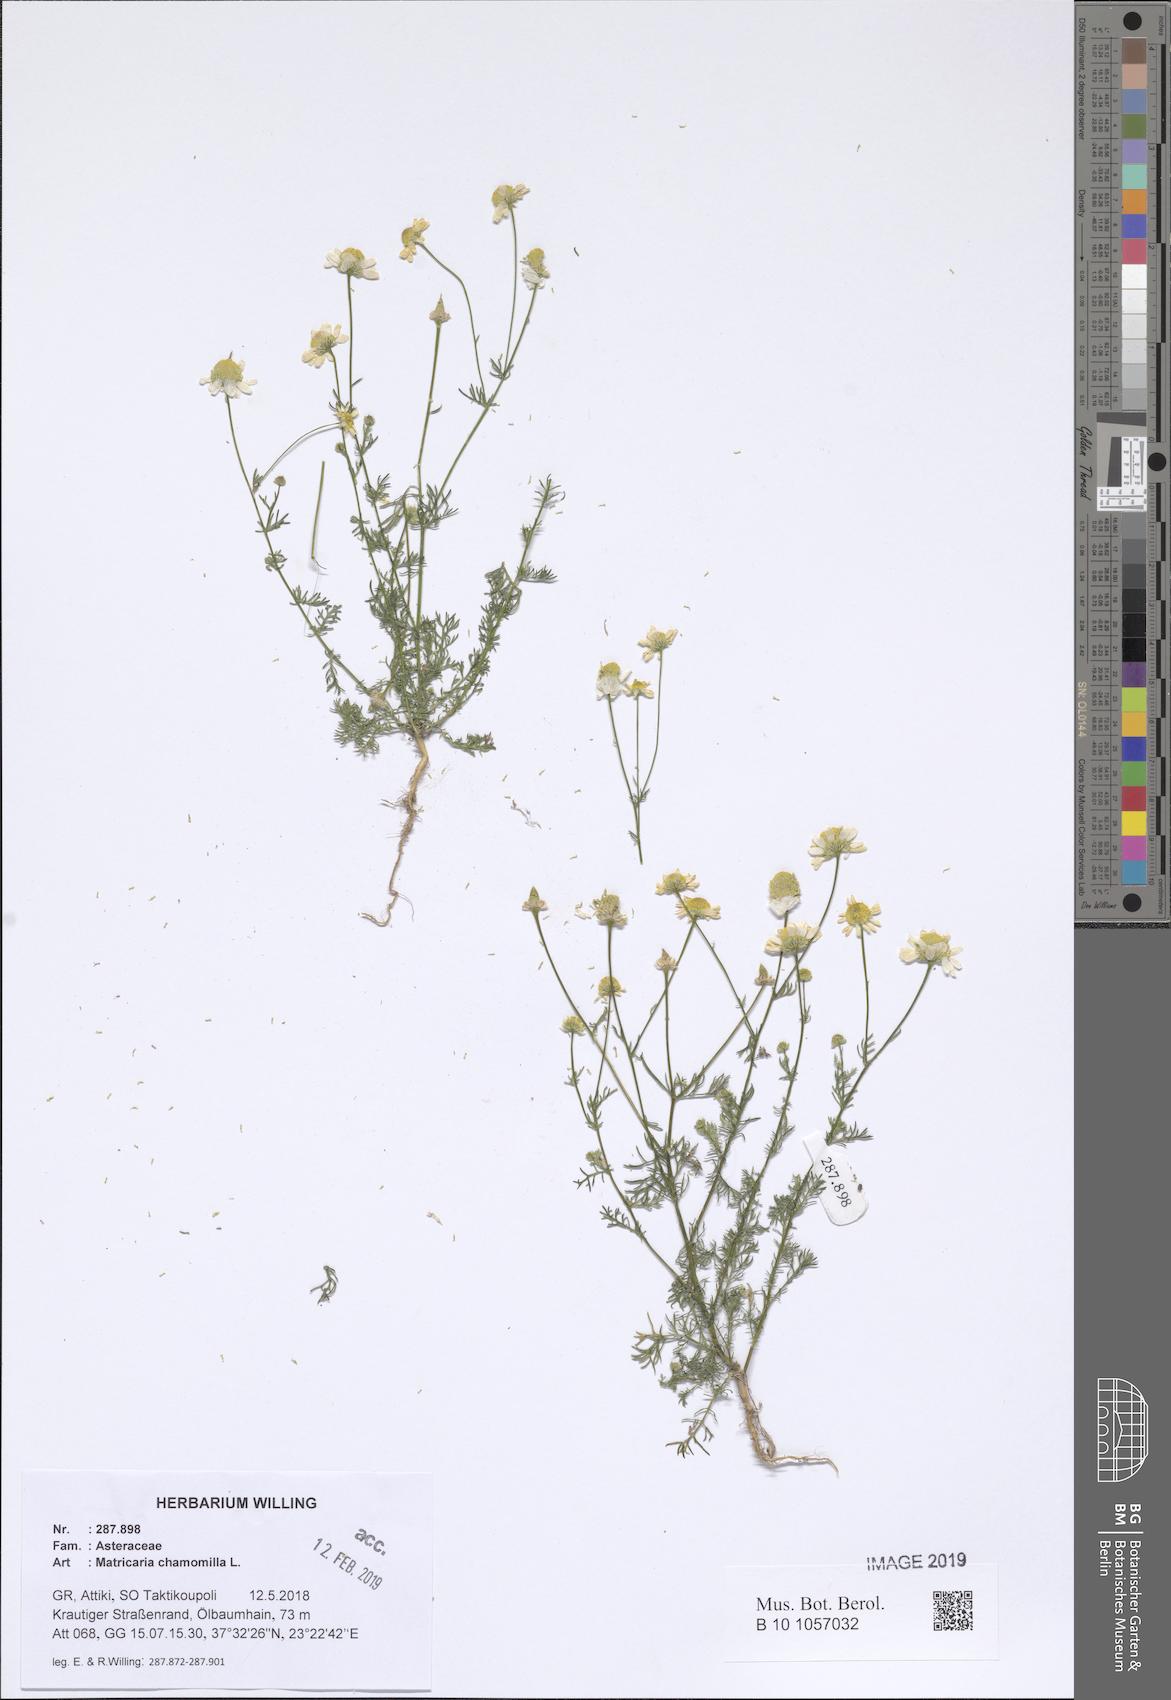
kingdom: Plantae
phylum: Tracheophyta
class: Magnoliopsida
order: Asterales
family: Asteraceae
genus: Matricaria
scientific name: Matricaria chamomilla
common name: Scented mayweed
